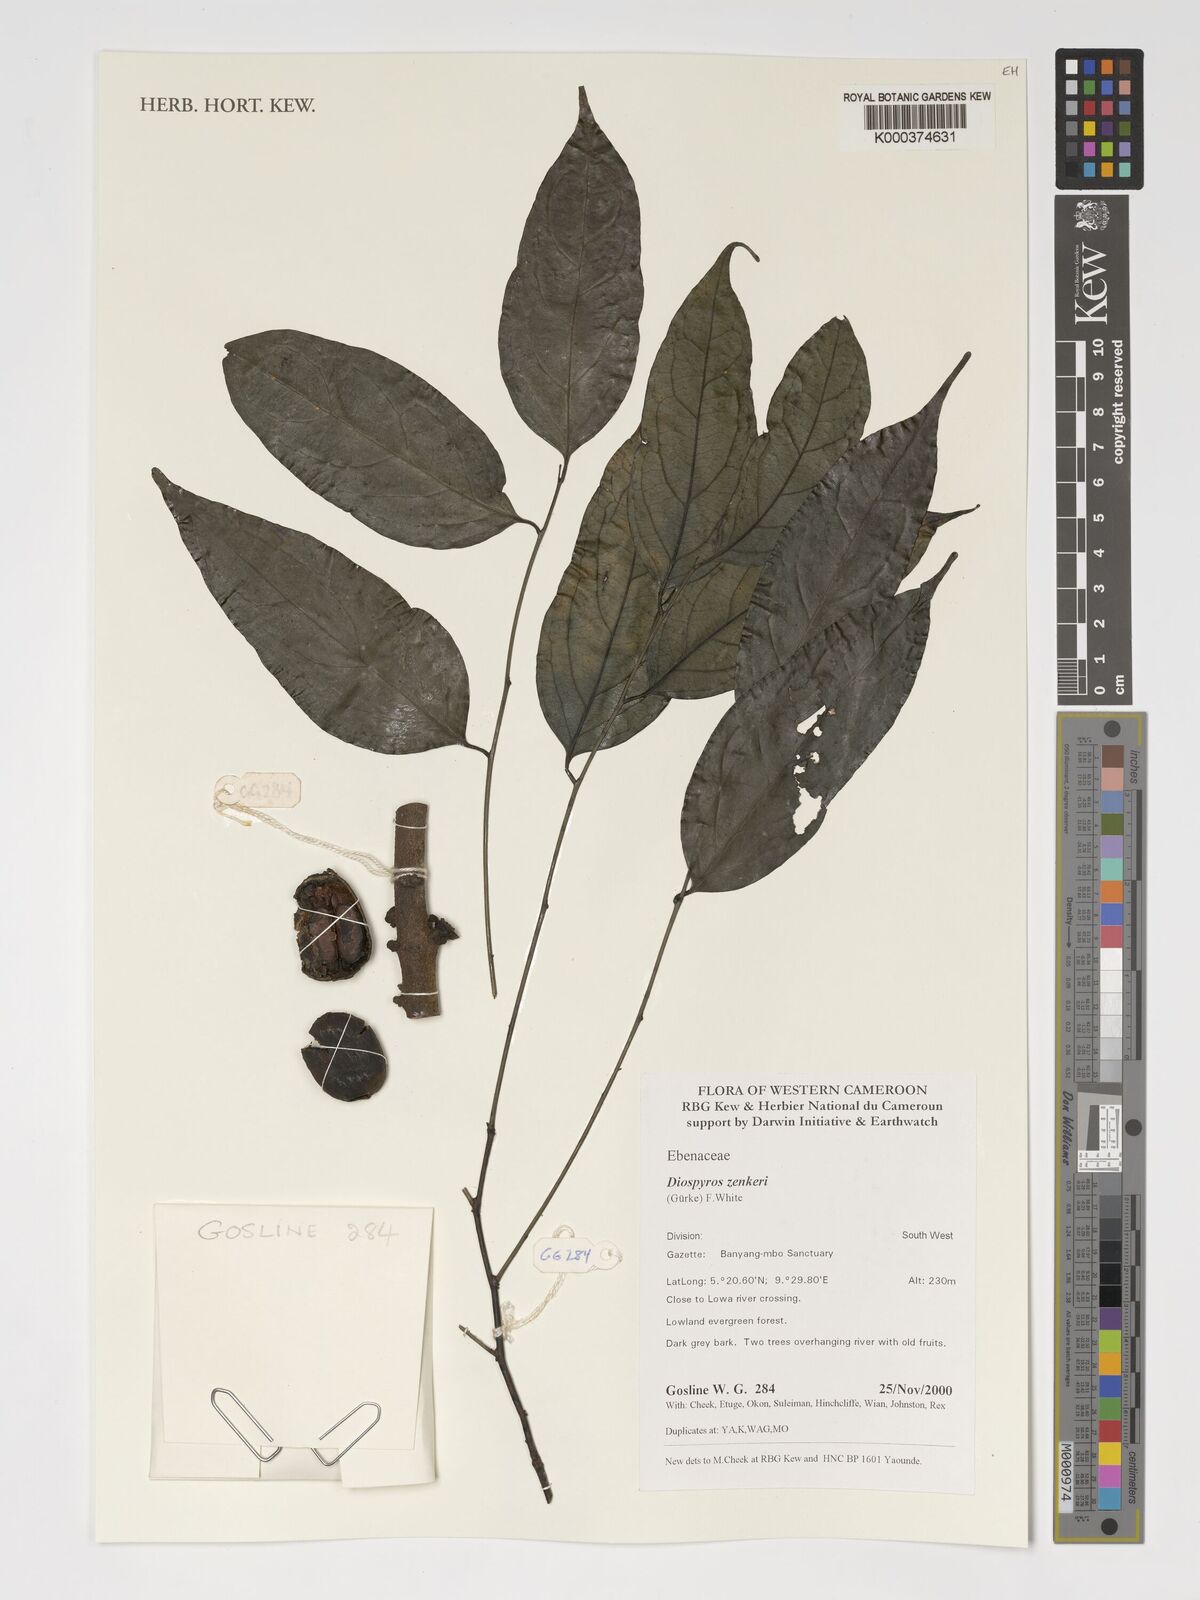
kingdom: Plantae
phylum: Tracheophyta
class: Magnoliopsida
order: Ericales
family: Ebenaceae
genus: Diospyros
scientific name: Diospyros zenkeri
